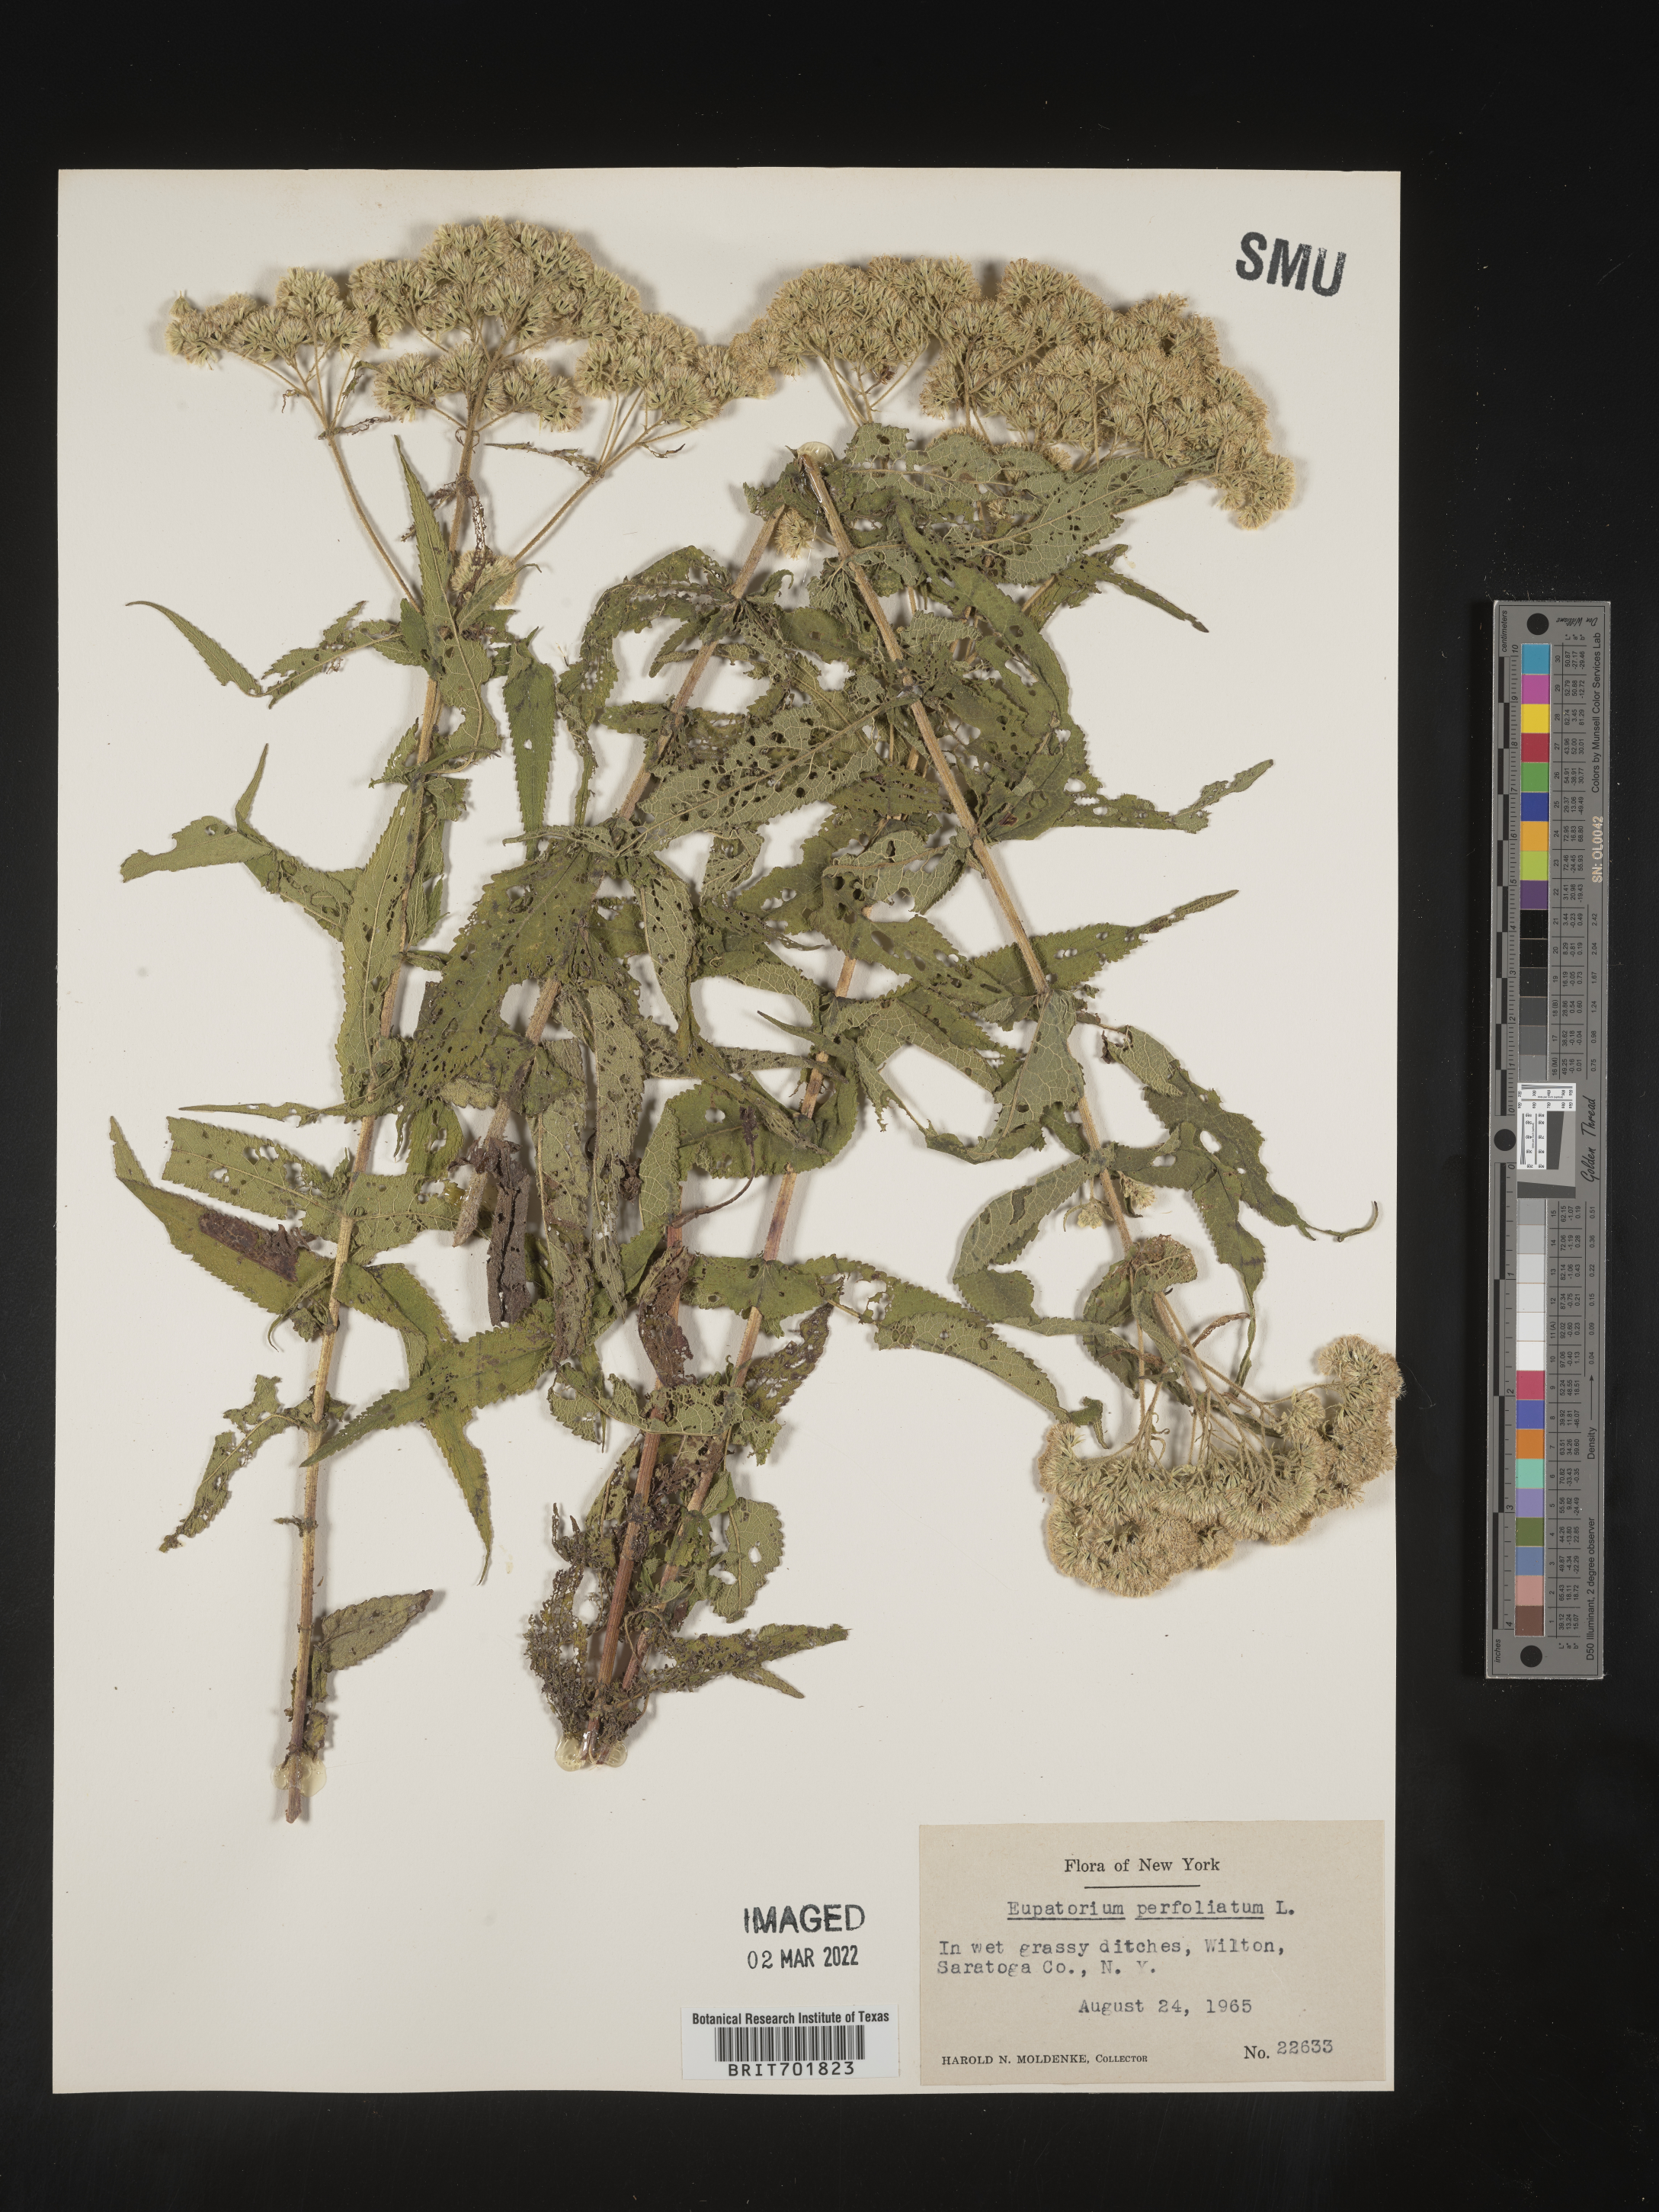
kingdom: Plantae
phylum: Tracheophyta
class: Magnoliopsida
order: Asterales
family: Asteraceae
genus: Eupatorium
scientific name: Eupatorium perfoliatum
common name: Boneset
